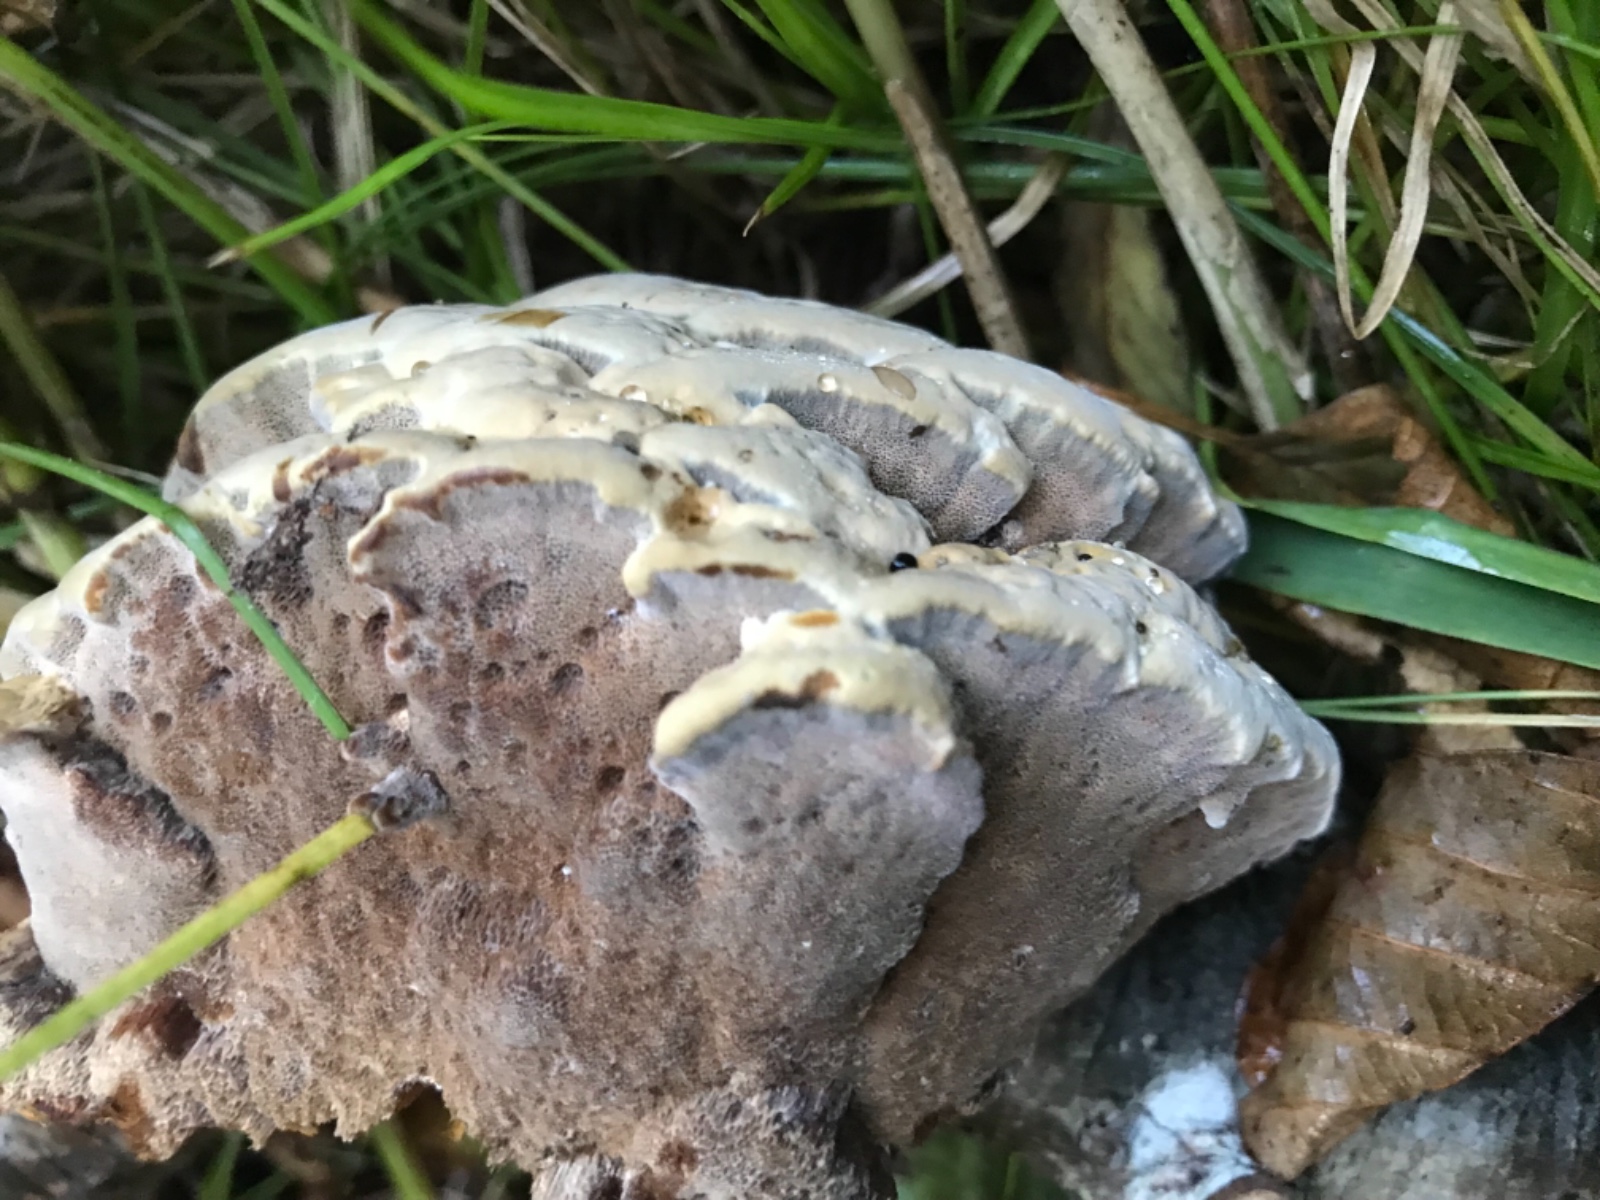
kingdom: Fungi
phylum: Basidiomycota
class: Agaricomycetes
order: Hymenochaetales
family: Hymenochaetaceae
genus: Xanthoporia
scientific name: Xanthoporia radiata
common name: elle-spejlporesvamp
